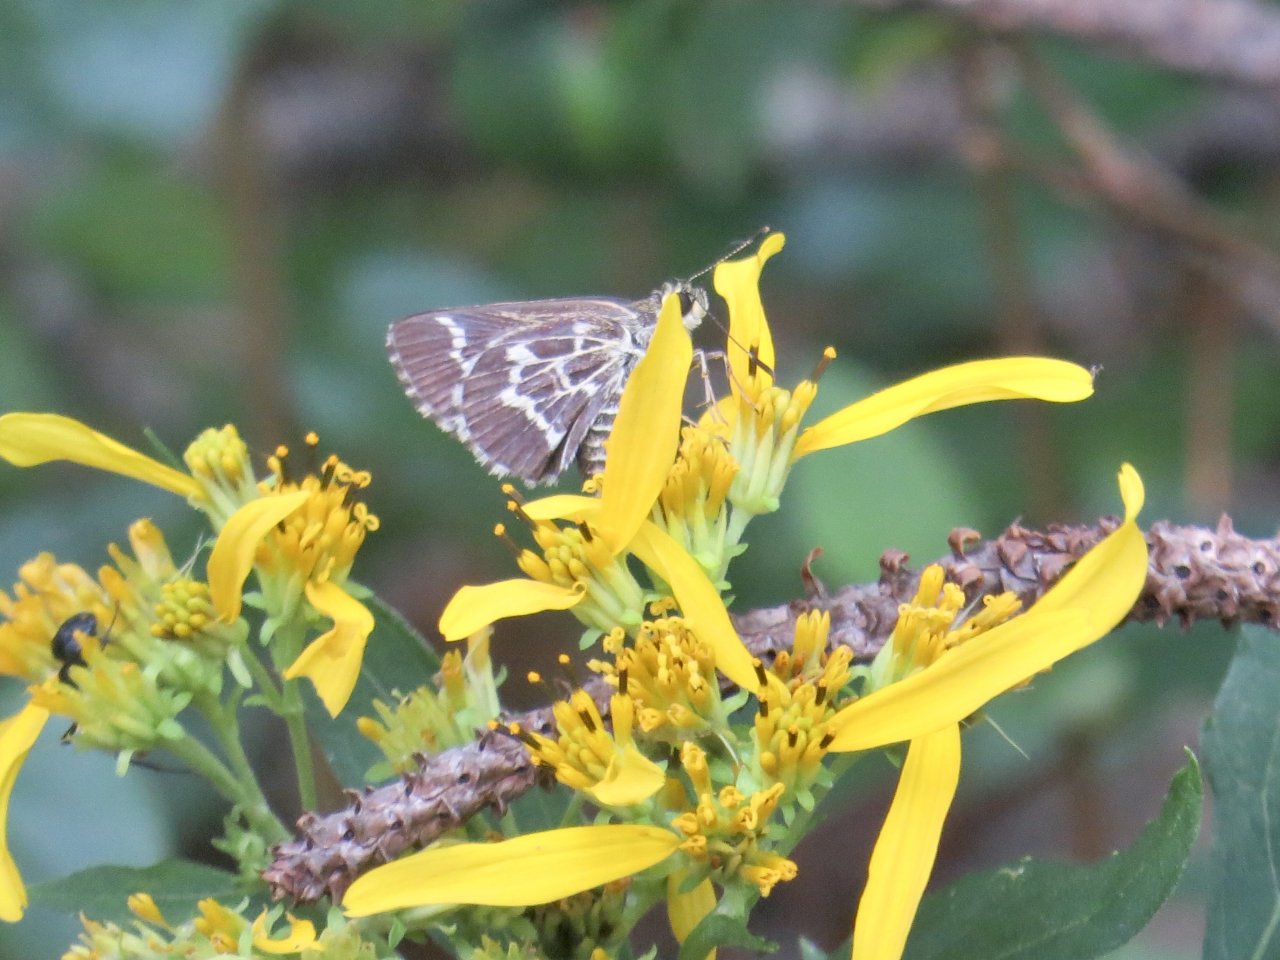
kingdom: Animalia
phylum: Arthropoda
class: Insecta
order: Lepidoptera
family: Hesperiidae
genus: Mastor
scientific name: Mastor aesculapius
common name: Lace-winged Roadside-Skipper
